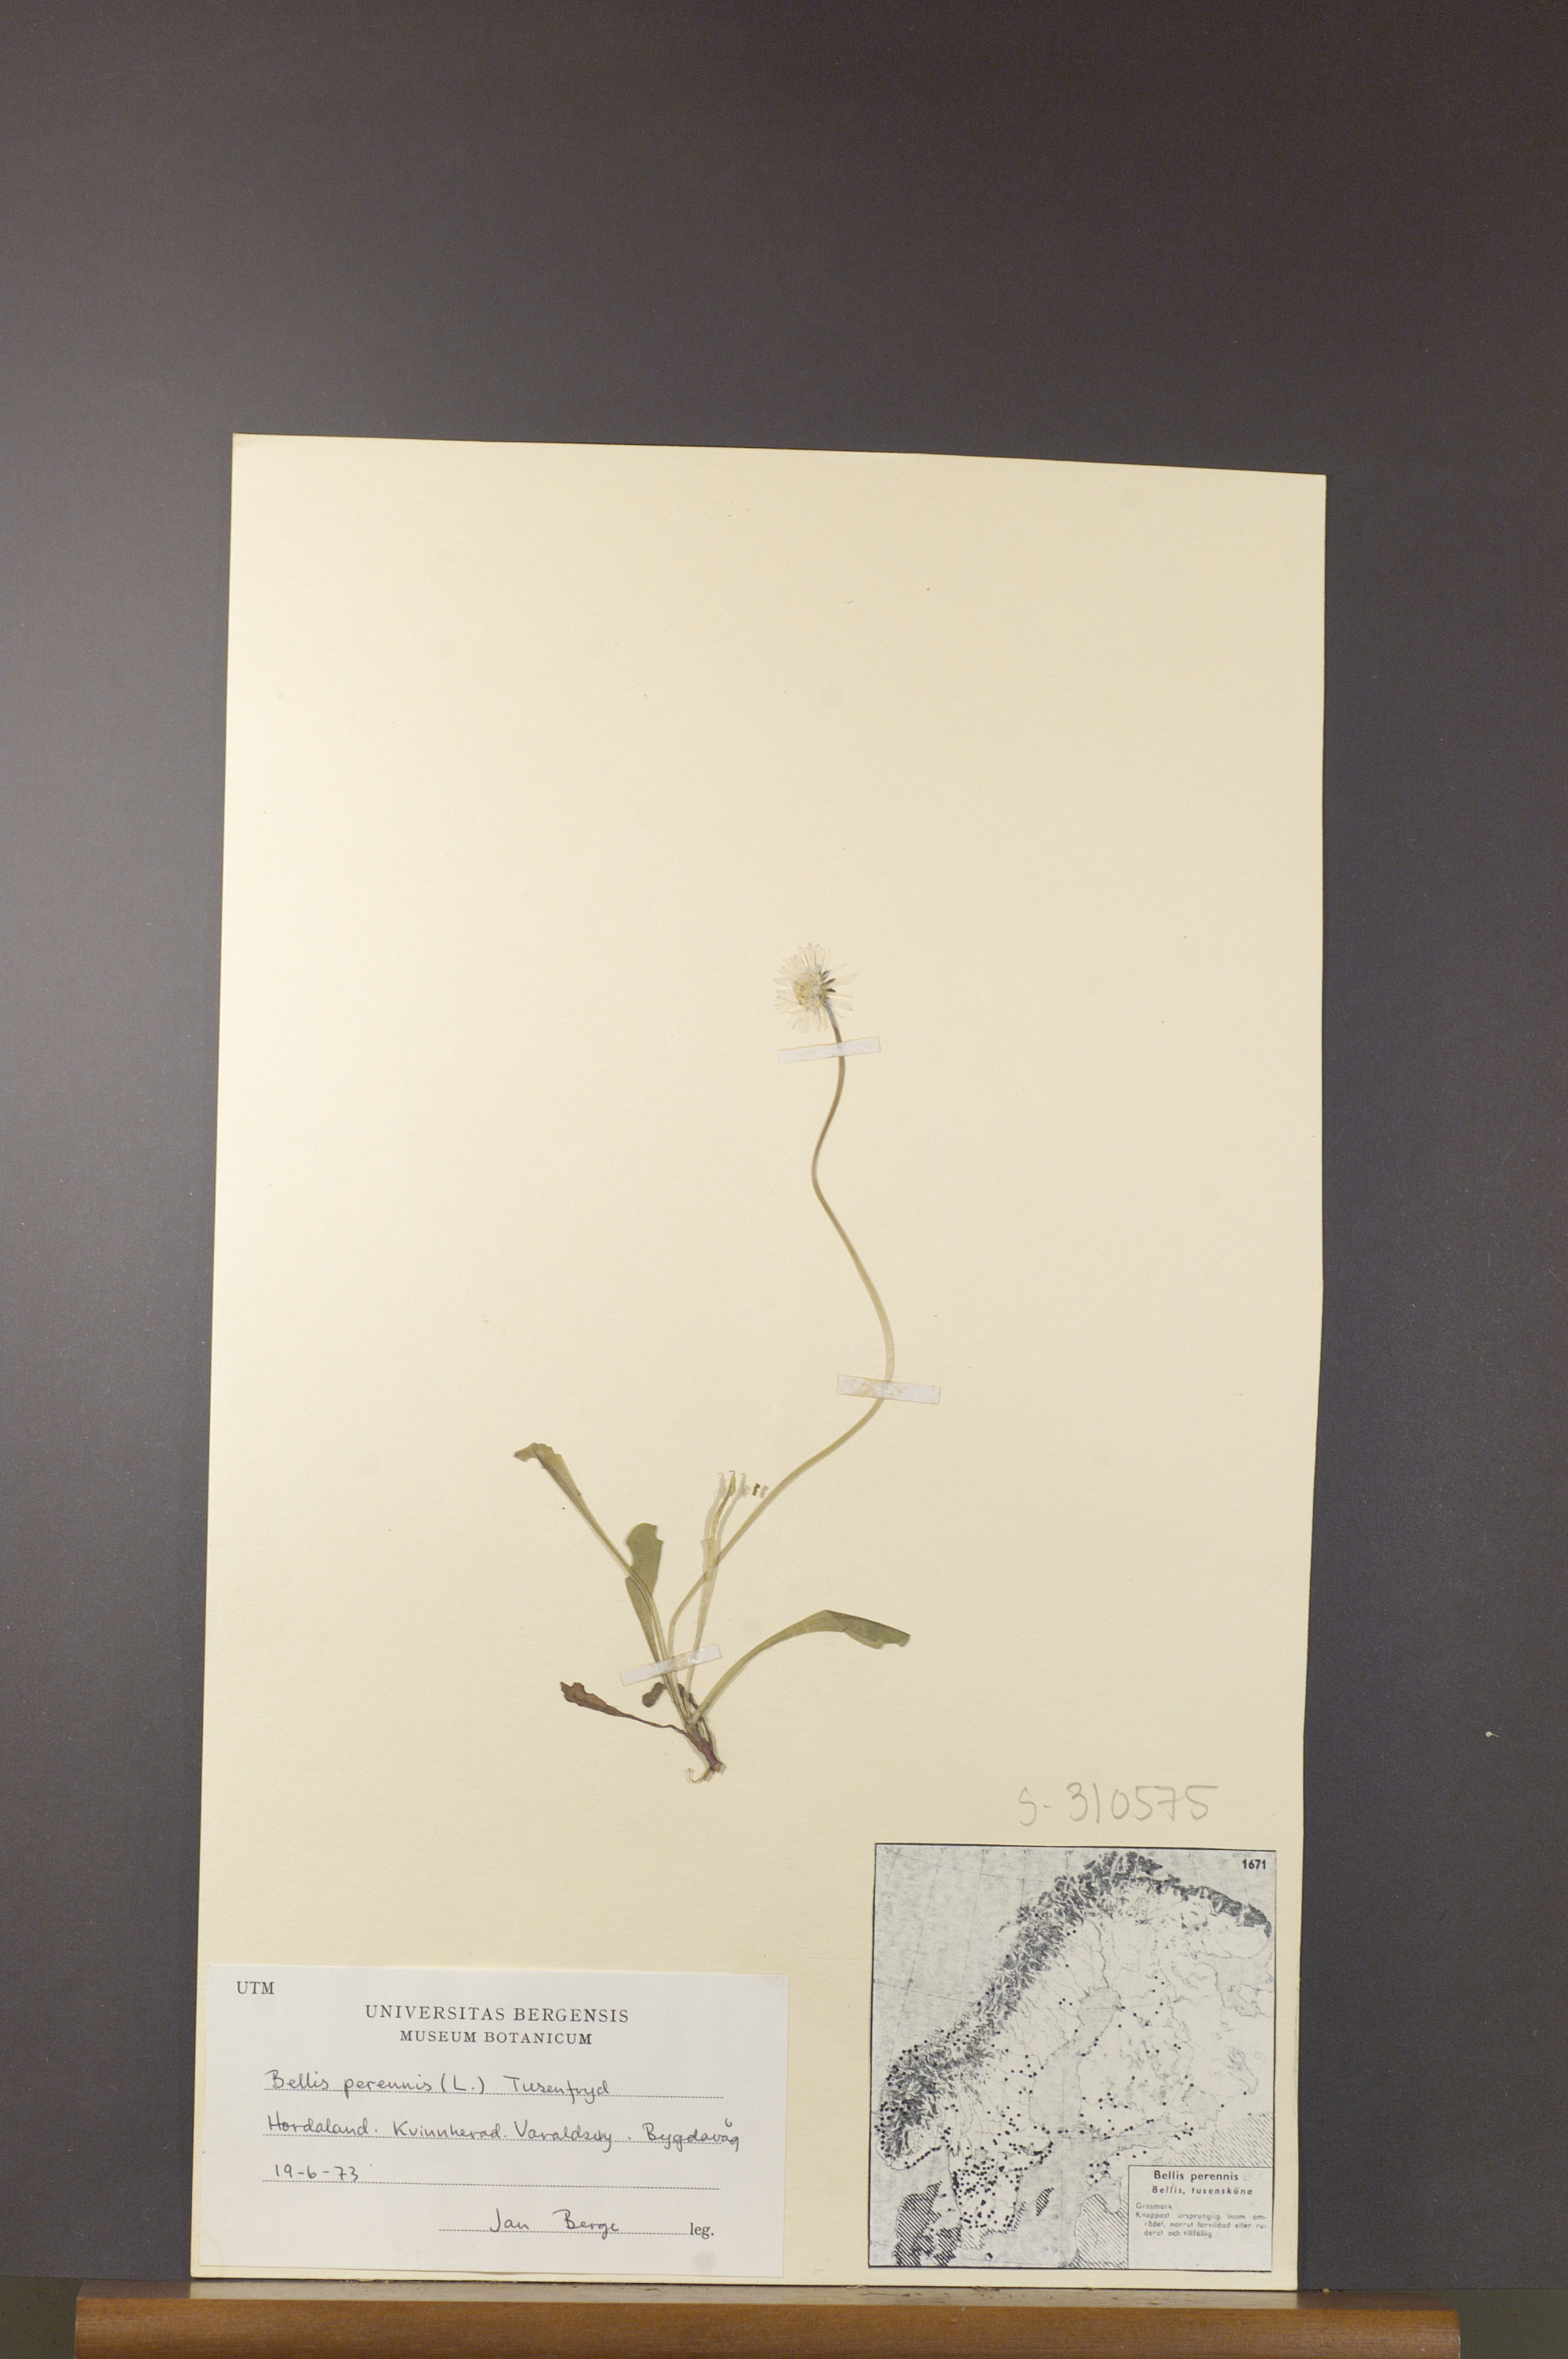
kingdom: Plantae
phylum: Tracheophyta
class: Magnoliopsida
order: Asterales
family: Asteraceae
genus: Bellis
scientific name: Bellis perennis
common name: Lawndaisy
